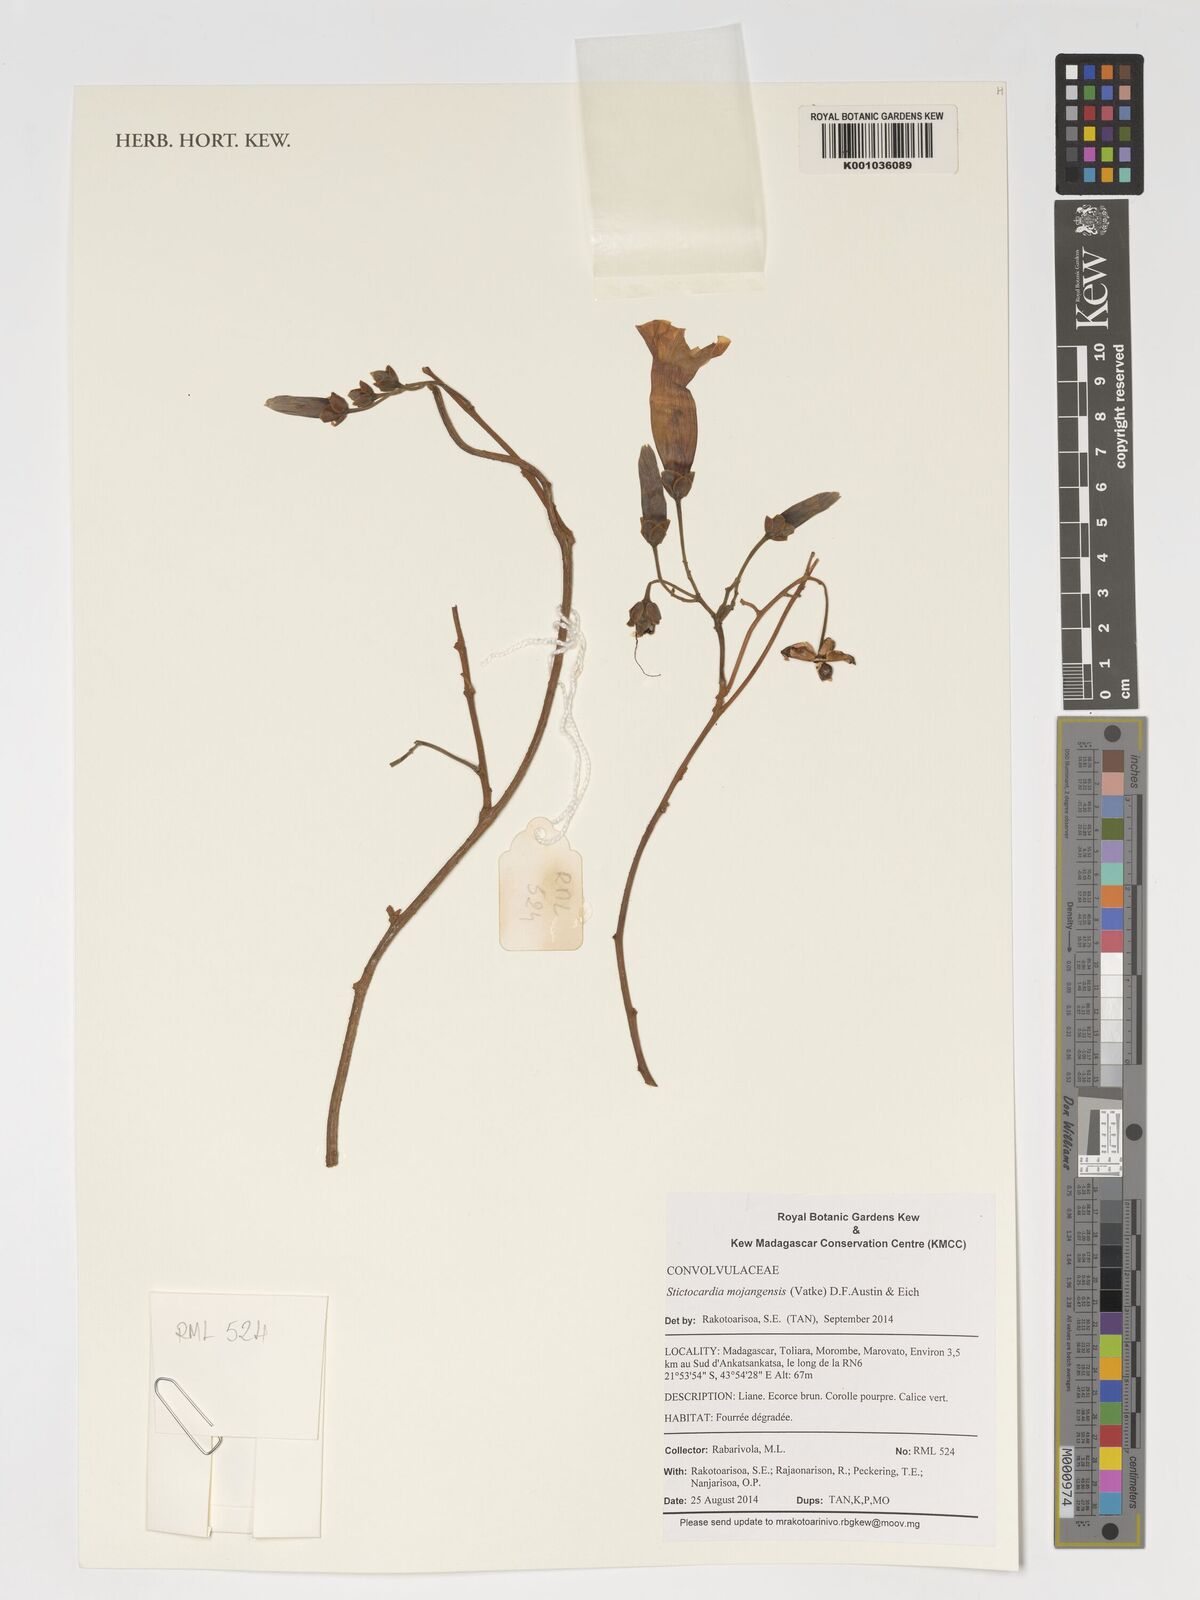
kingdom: Plantae
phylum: Tracheophyta
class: Magnoliopsida
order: Solanales
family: Convolvulaceae
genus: Stictocardia
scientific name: Stictocardia mojangensis
